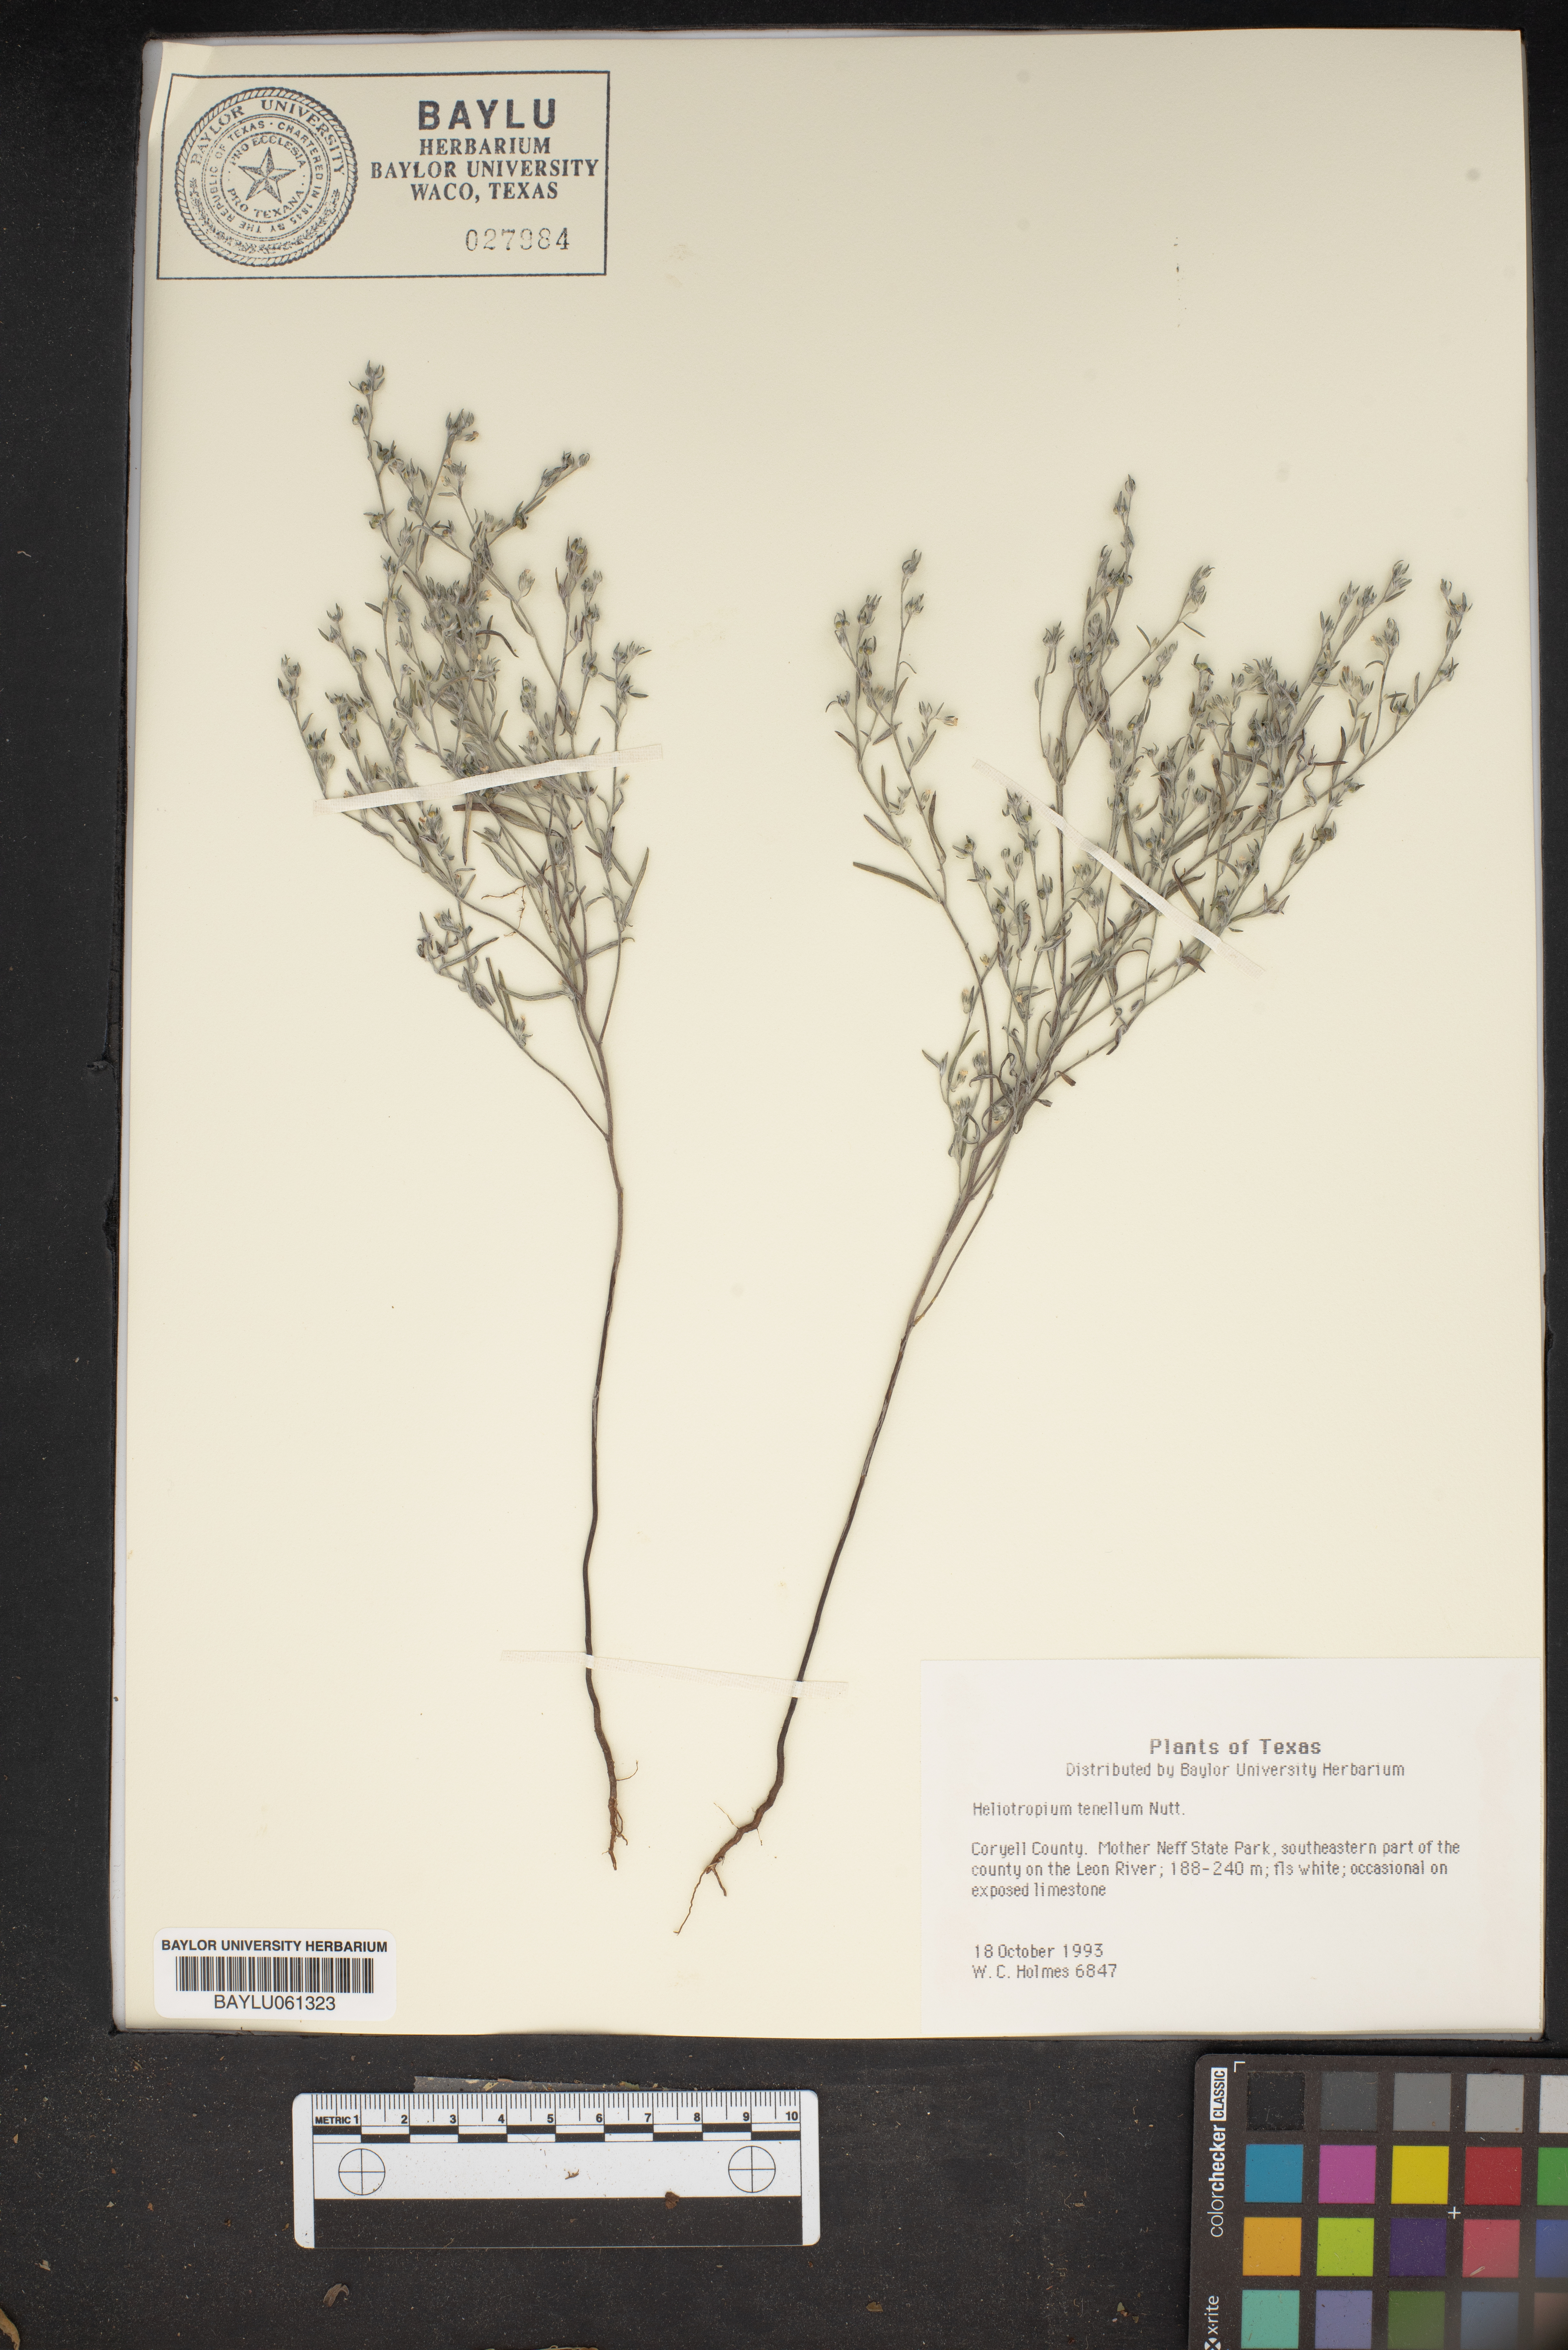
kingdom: Plantae
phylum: Tracheophyta
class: Magnoliopsida
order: Boraginales
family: Heliotropiaceae
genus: Euploca
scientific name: Euploca tenella
